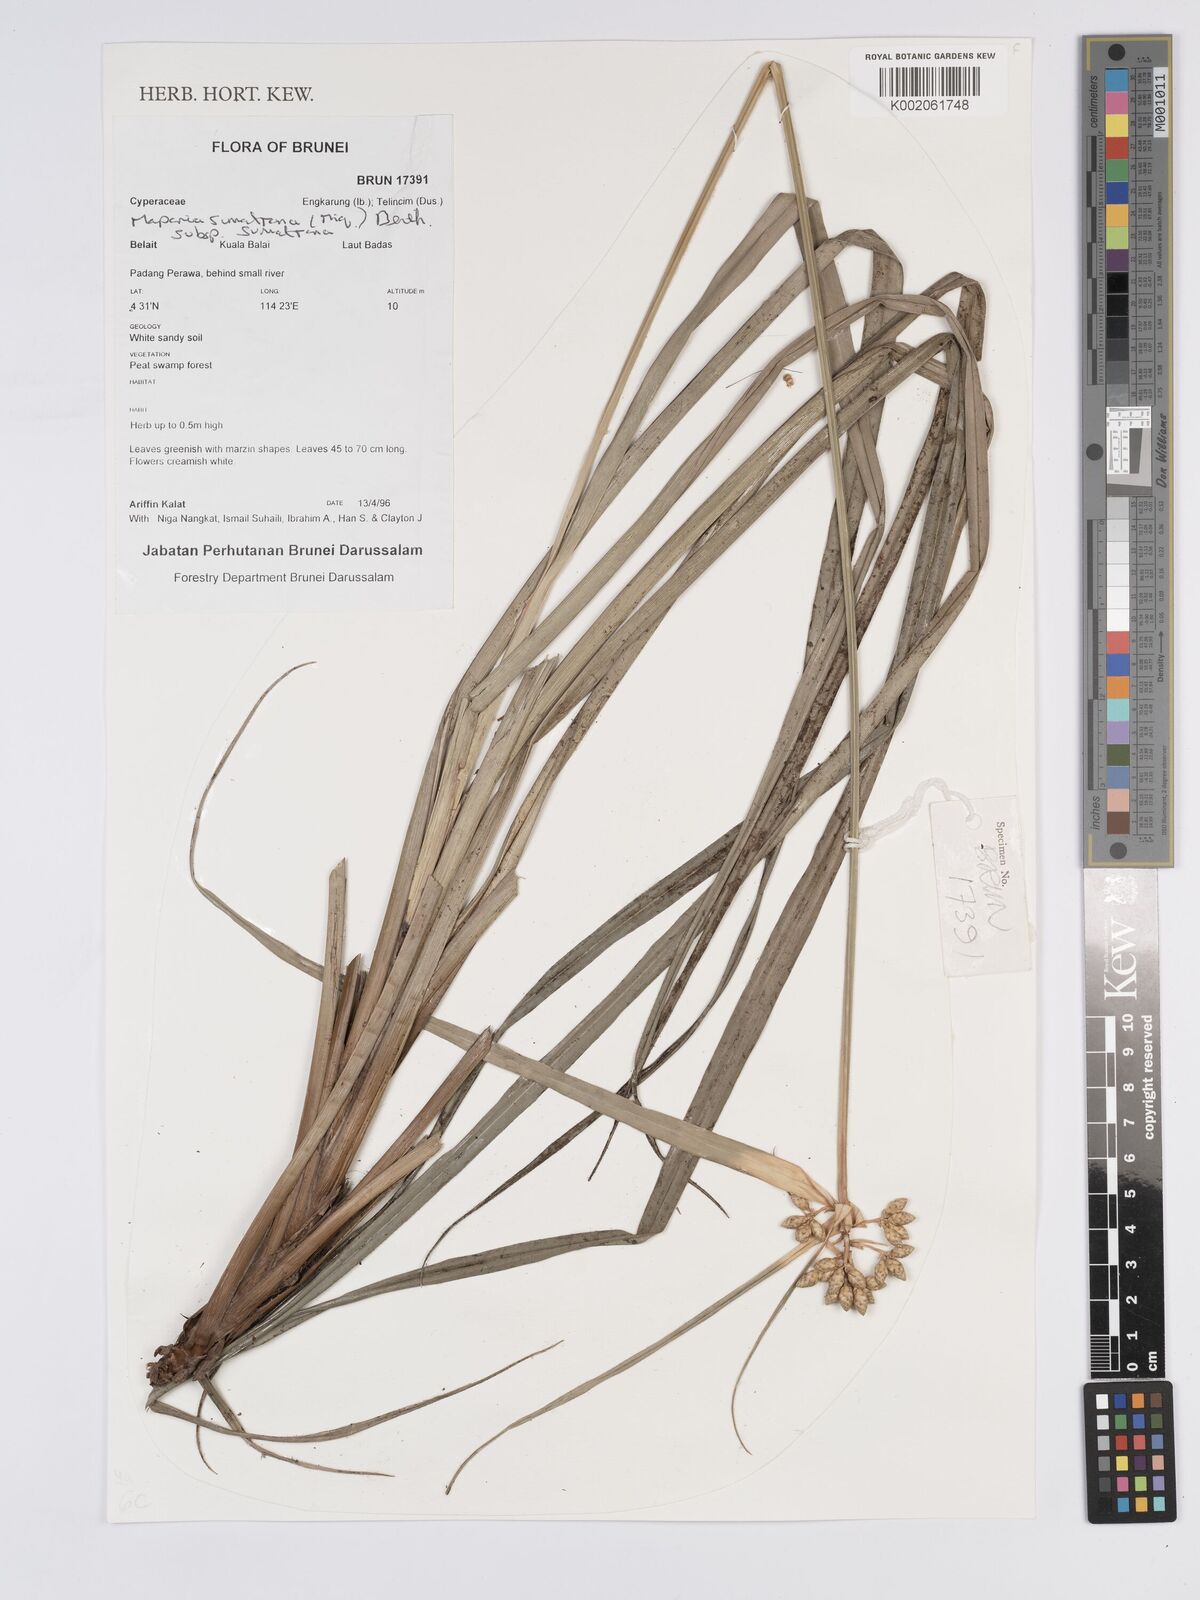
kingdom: Plantae
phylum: Tracheophyta
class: Liliopsida
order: Poales
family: Cyperaceae
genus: Mapania
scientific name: Mapania sumatrana
